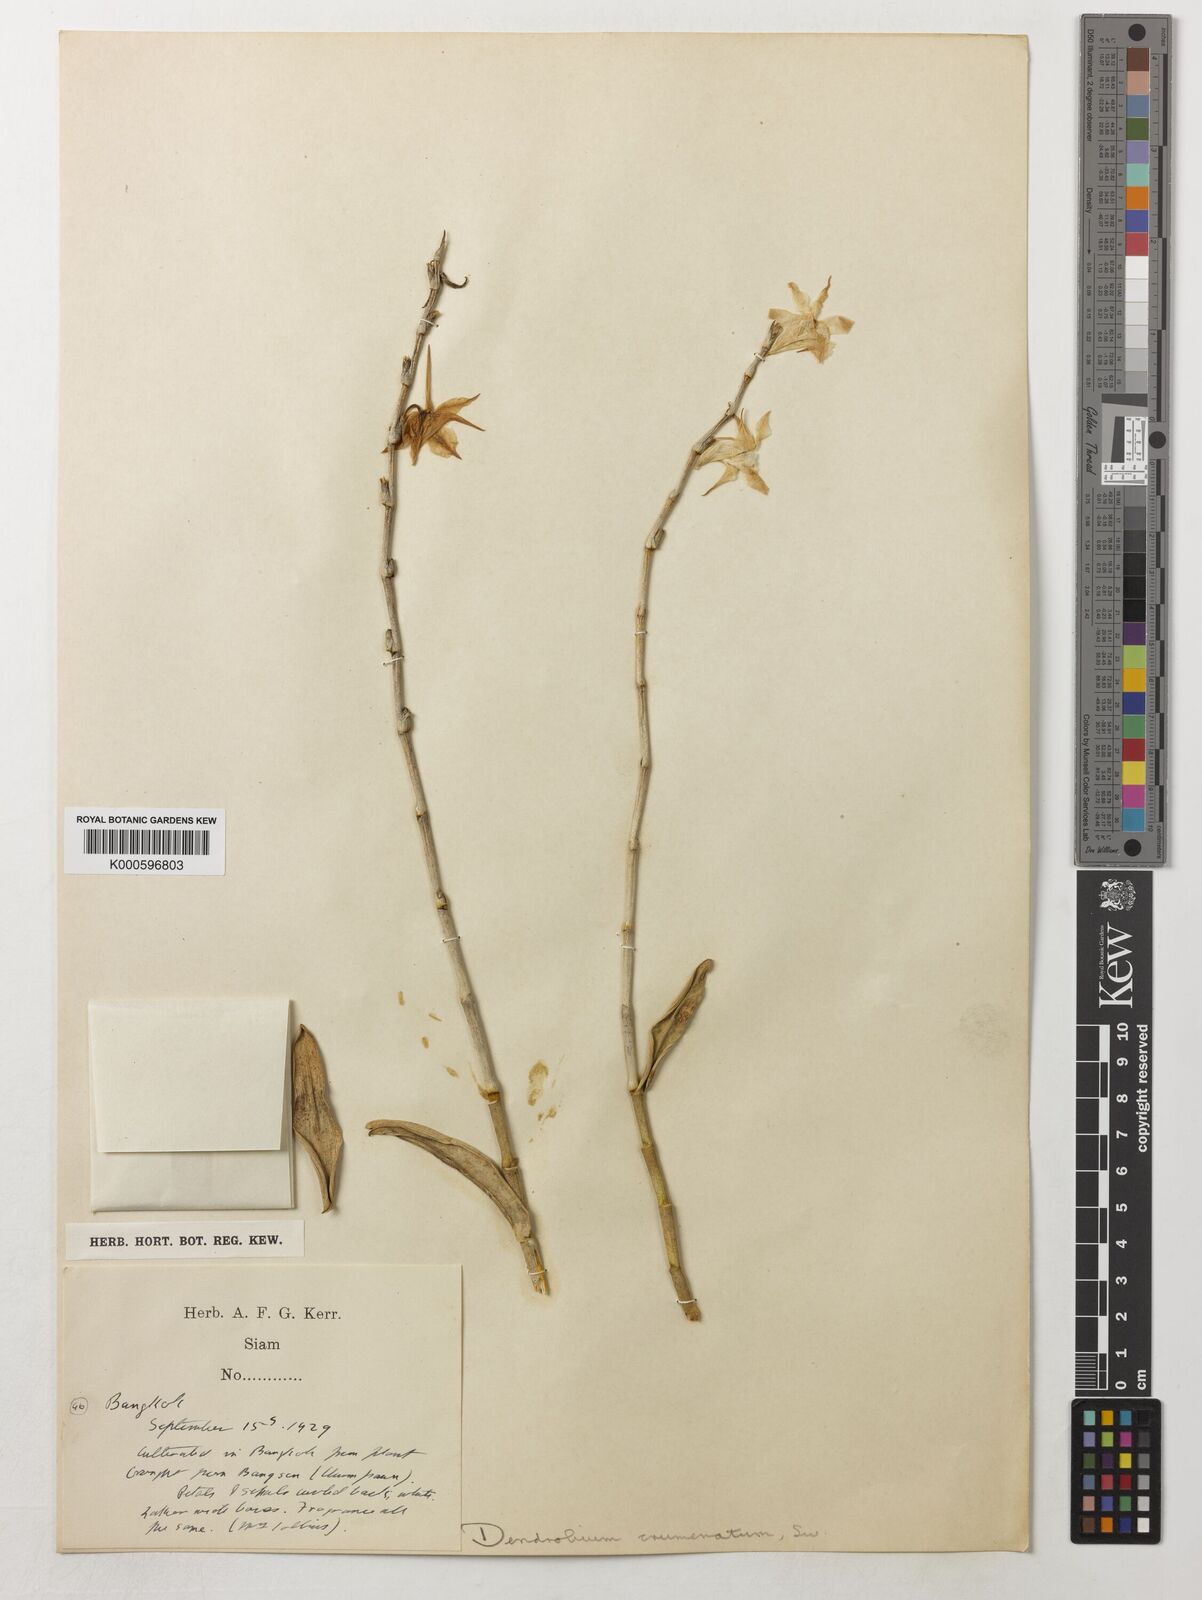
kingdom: Plantae
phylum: Tracheophyta
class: Liliopsida
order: Asparagales
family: Orchidaceae
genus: Dendrobium
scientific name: Dendrobium crumenatum
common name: Orchid
